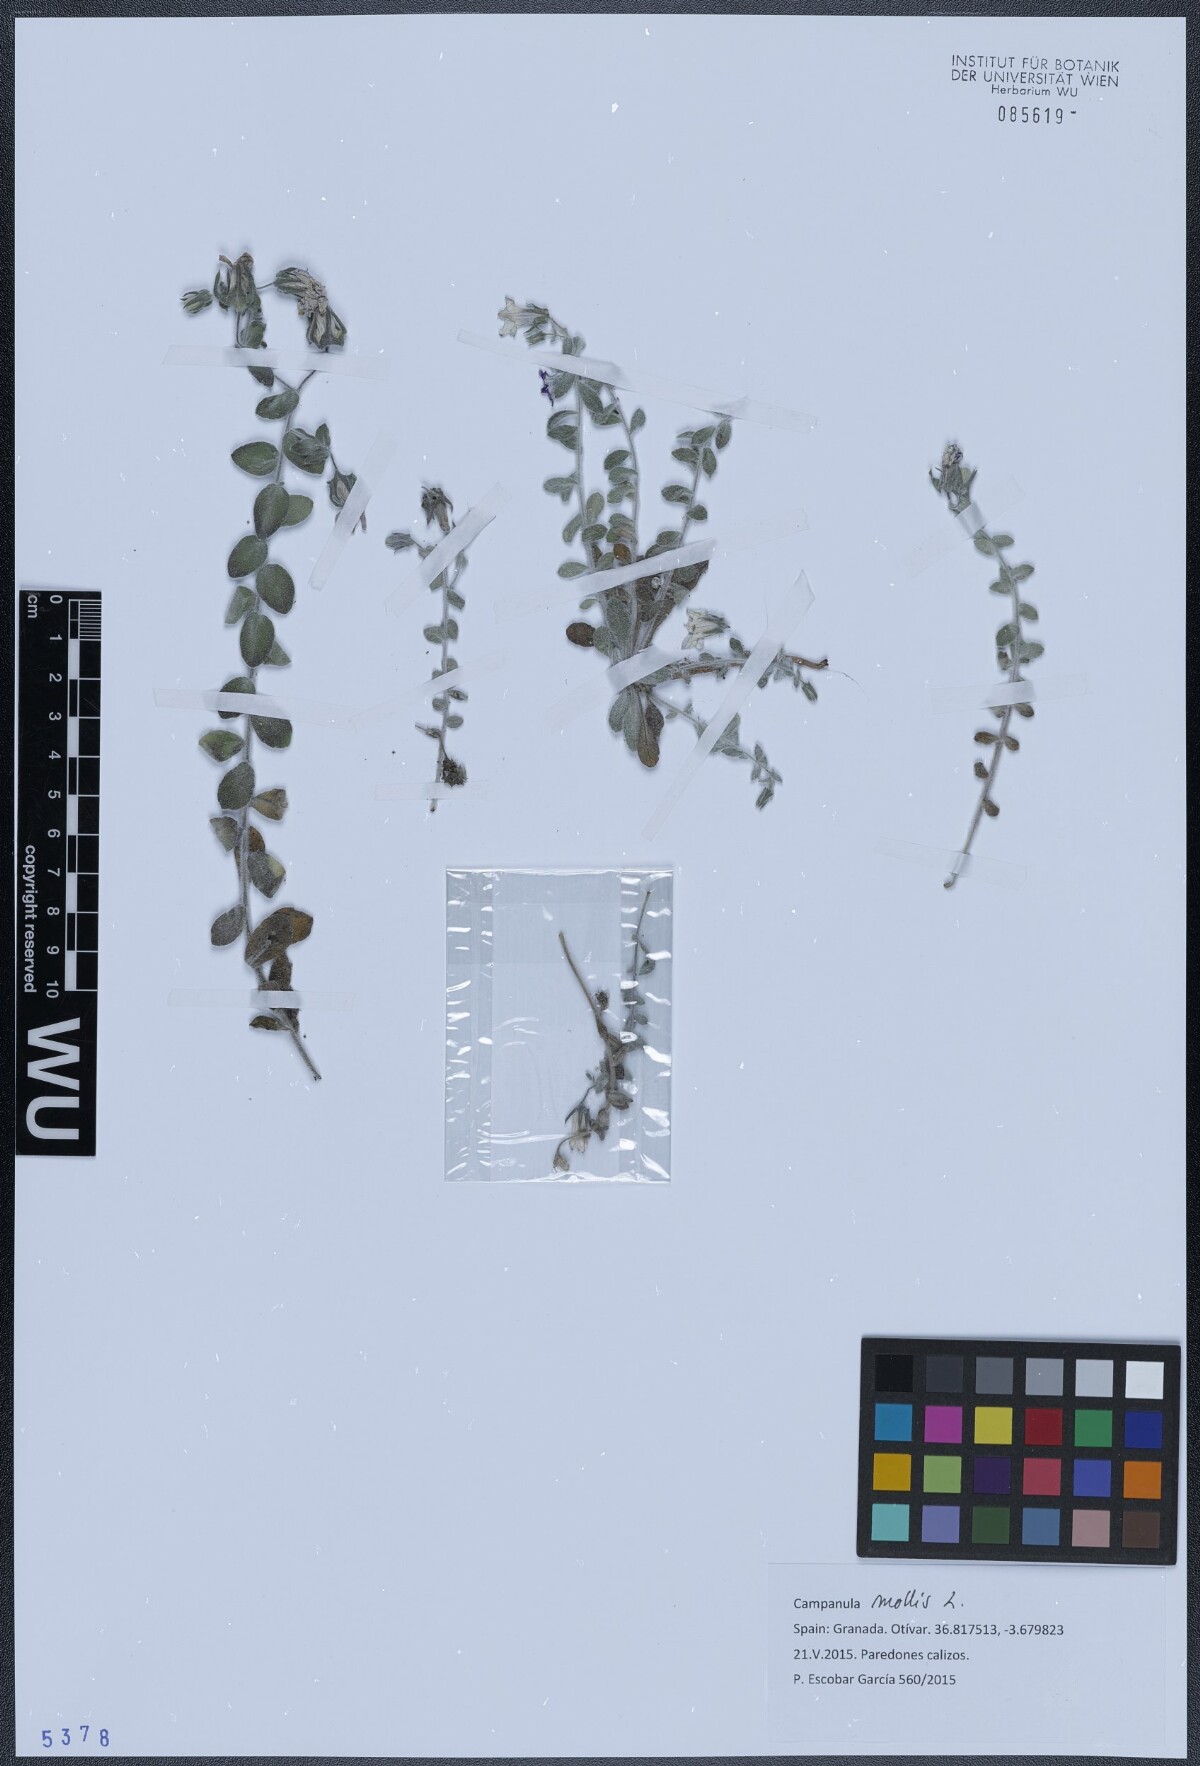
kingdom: Plantae
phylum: Tracheophyta
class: Magnoliopsida
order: Asterales
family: Campanulaceae
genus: Campanula
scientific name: Campanula mollis
